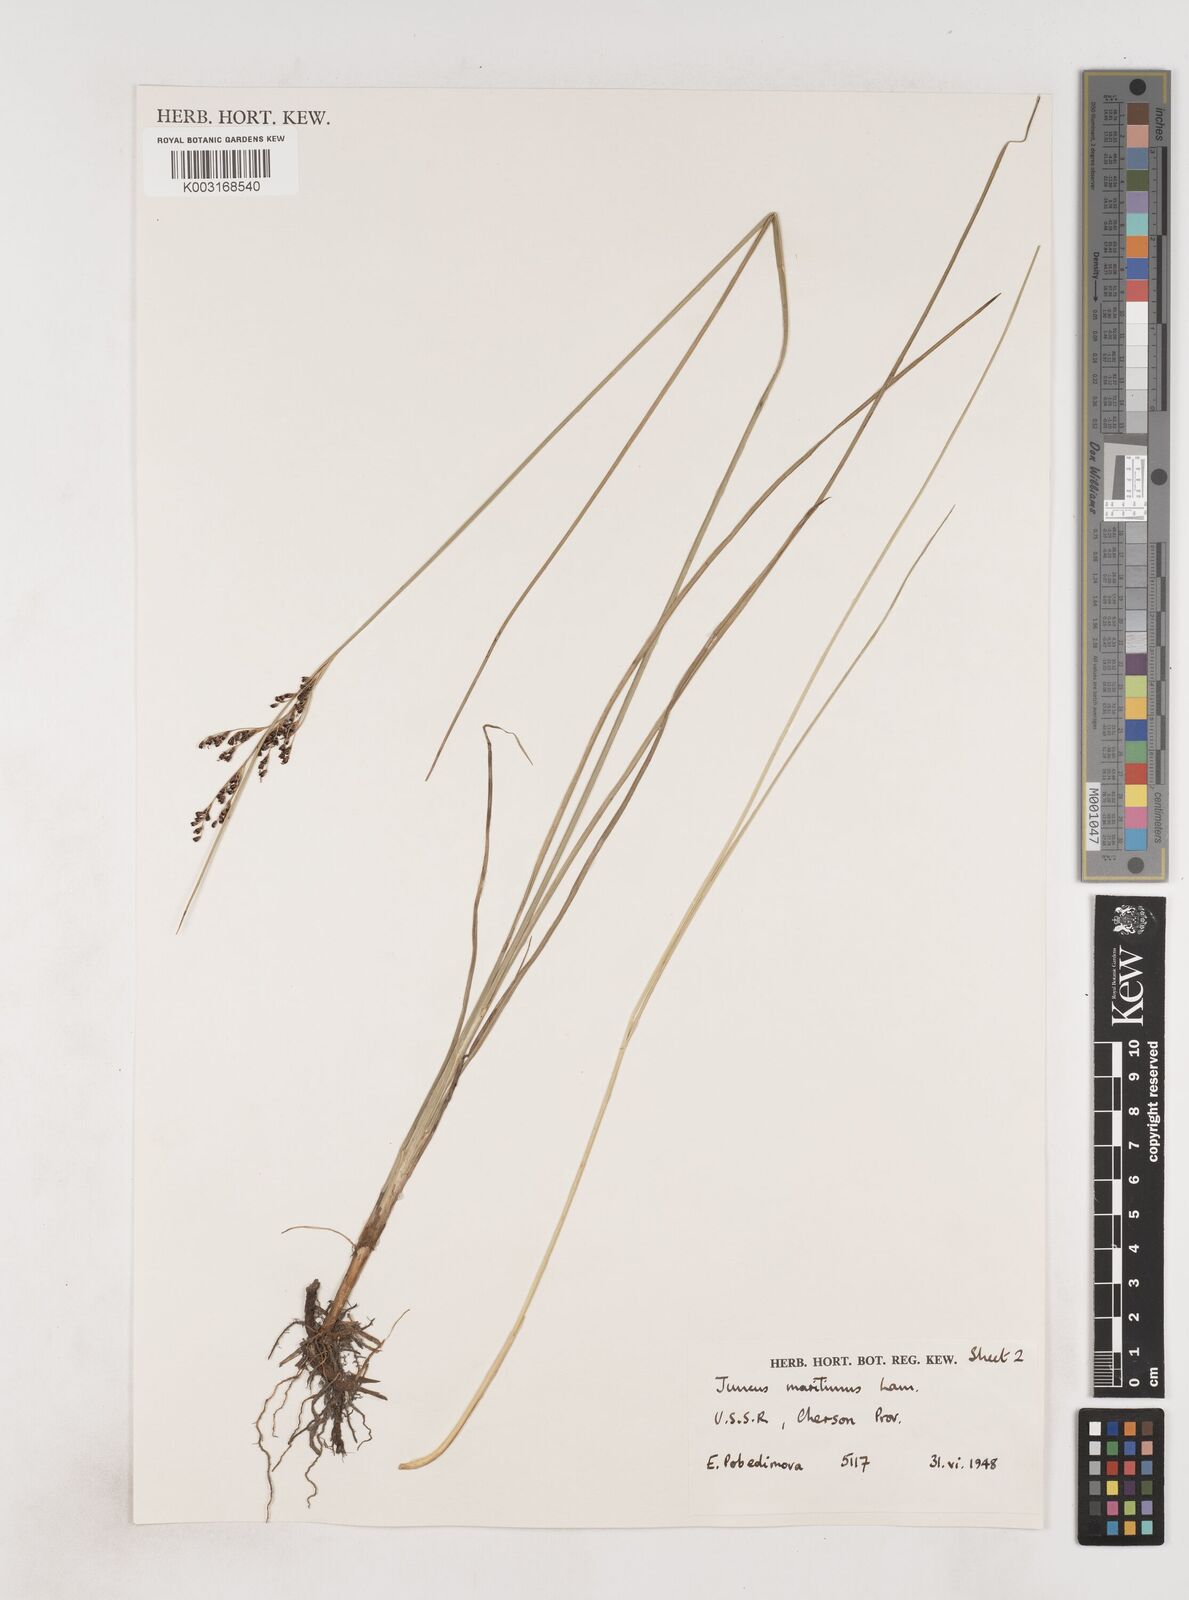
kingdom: Plantae
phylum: Tracheophyta
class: Liliopsida
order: Poales
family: Juncaceae
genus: Juncus
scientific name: Juncus maritimus
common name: Sea rush
